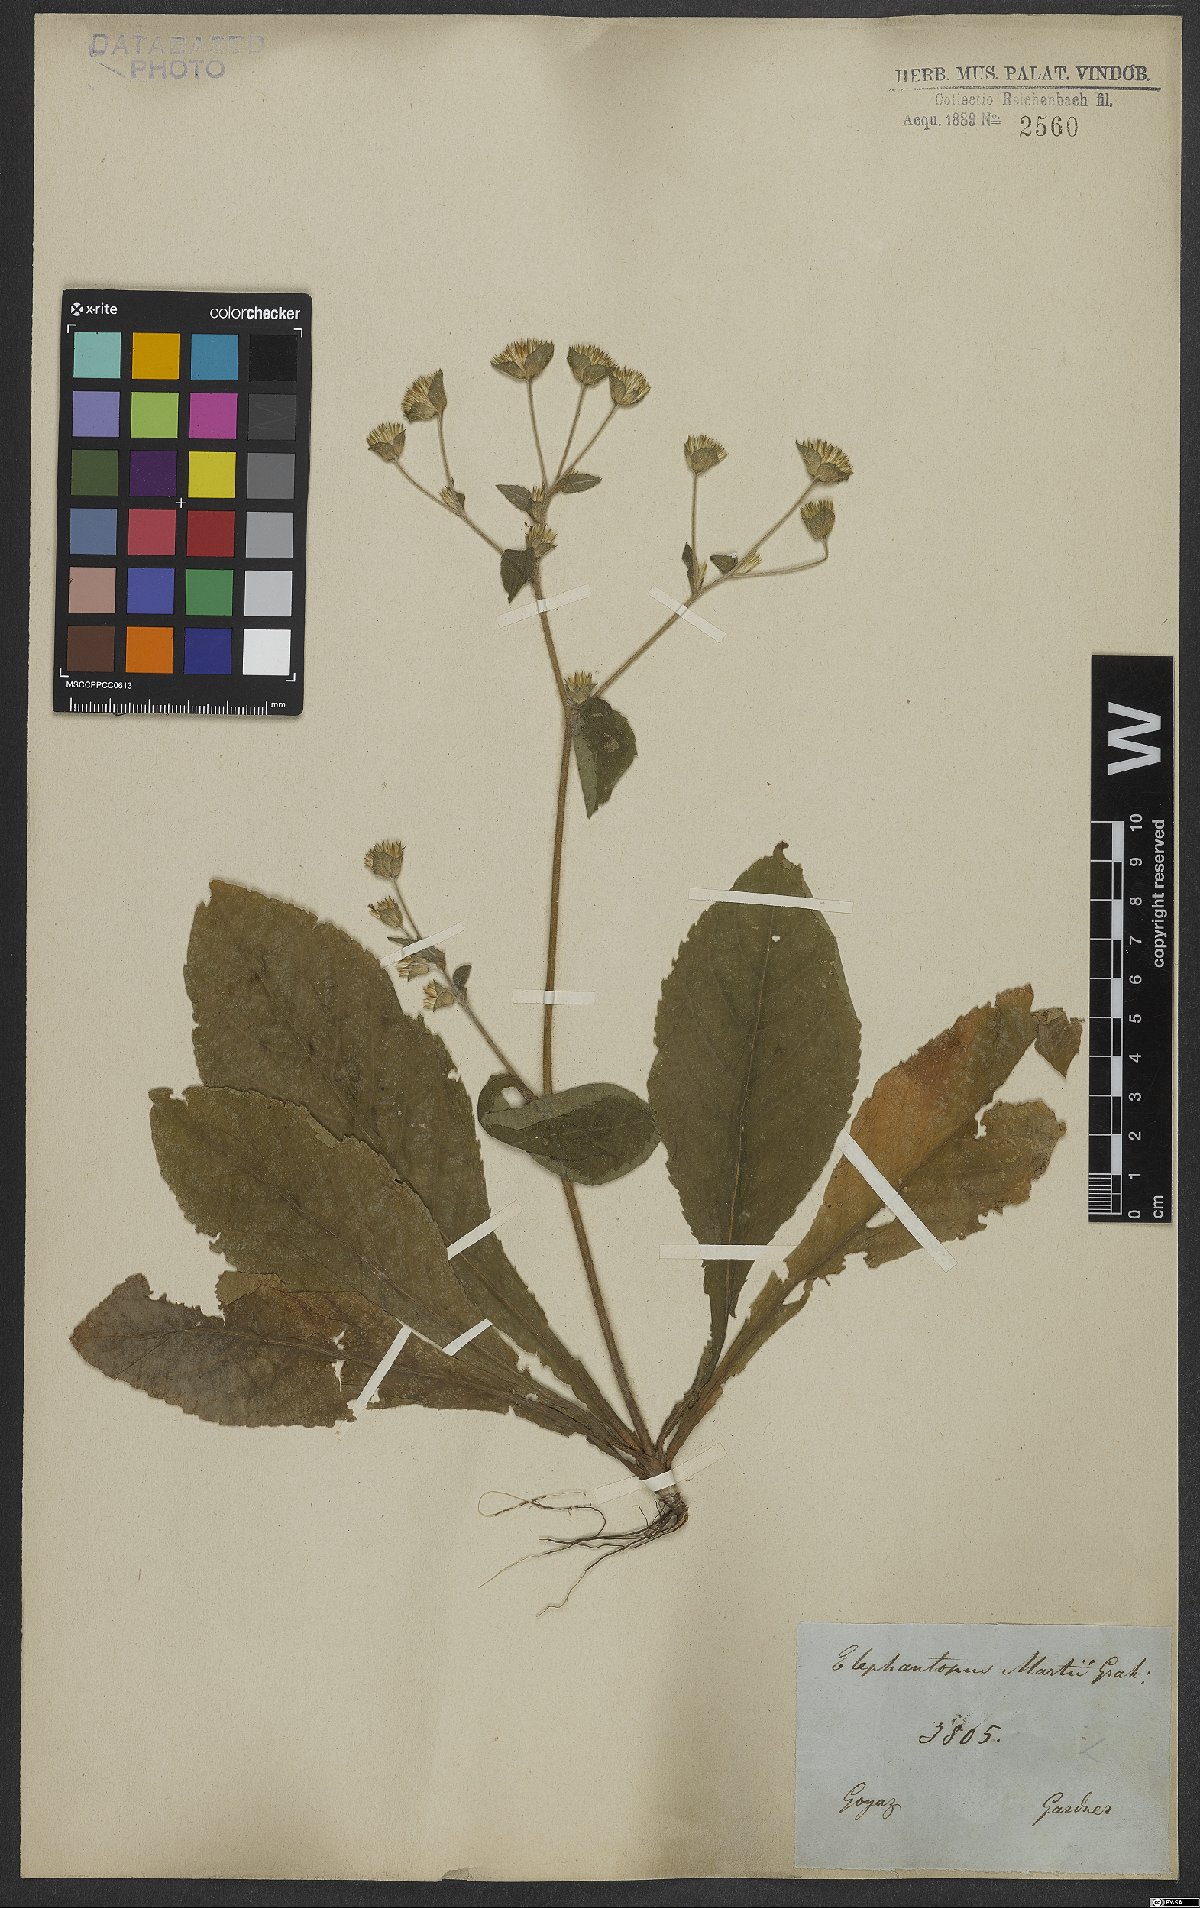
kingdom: Plantae
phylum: Tracheophyta
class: Magnoliopsida
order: Asterales
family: Asteraceae
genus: Elephantopus
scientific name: Elephantopus mollis
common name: Soft elephantsfoot
